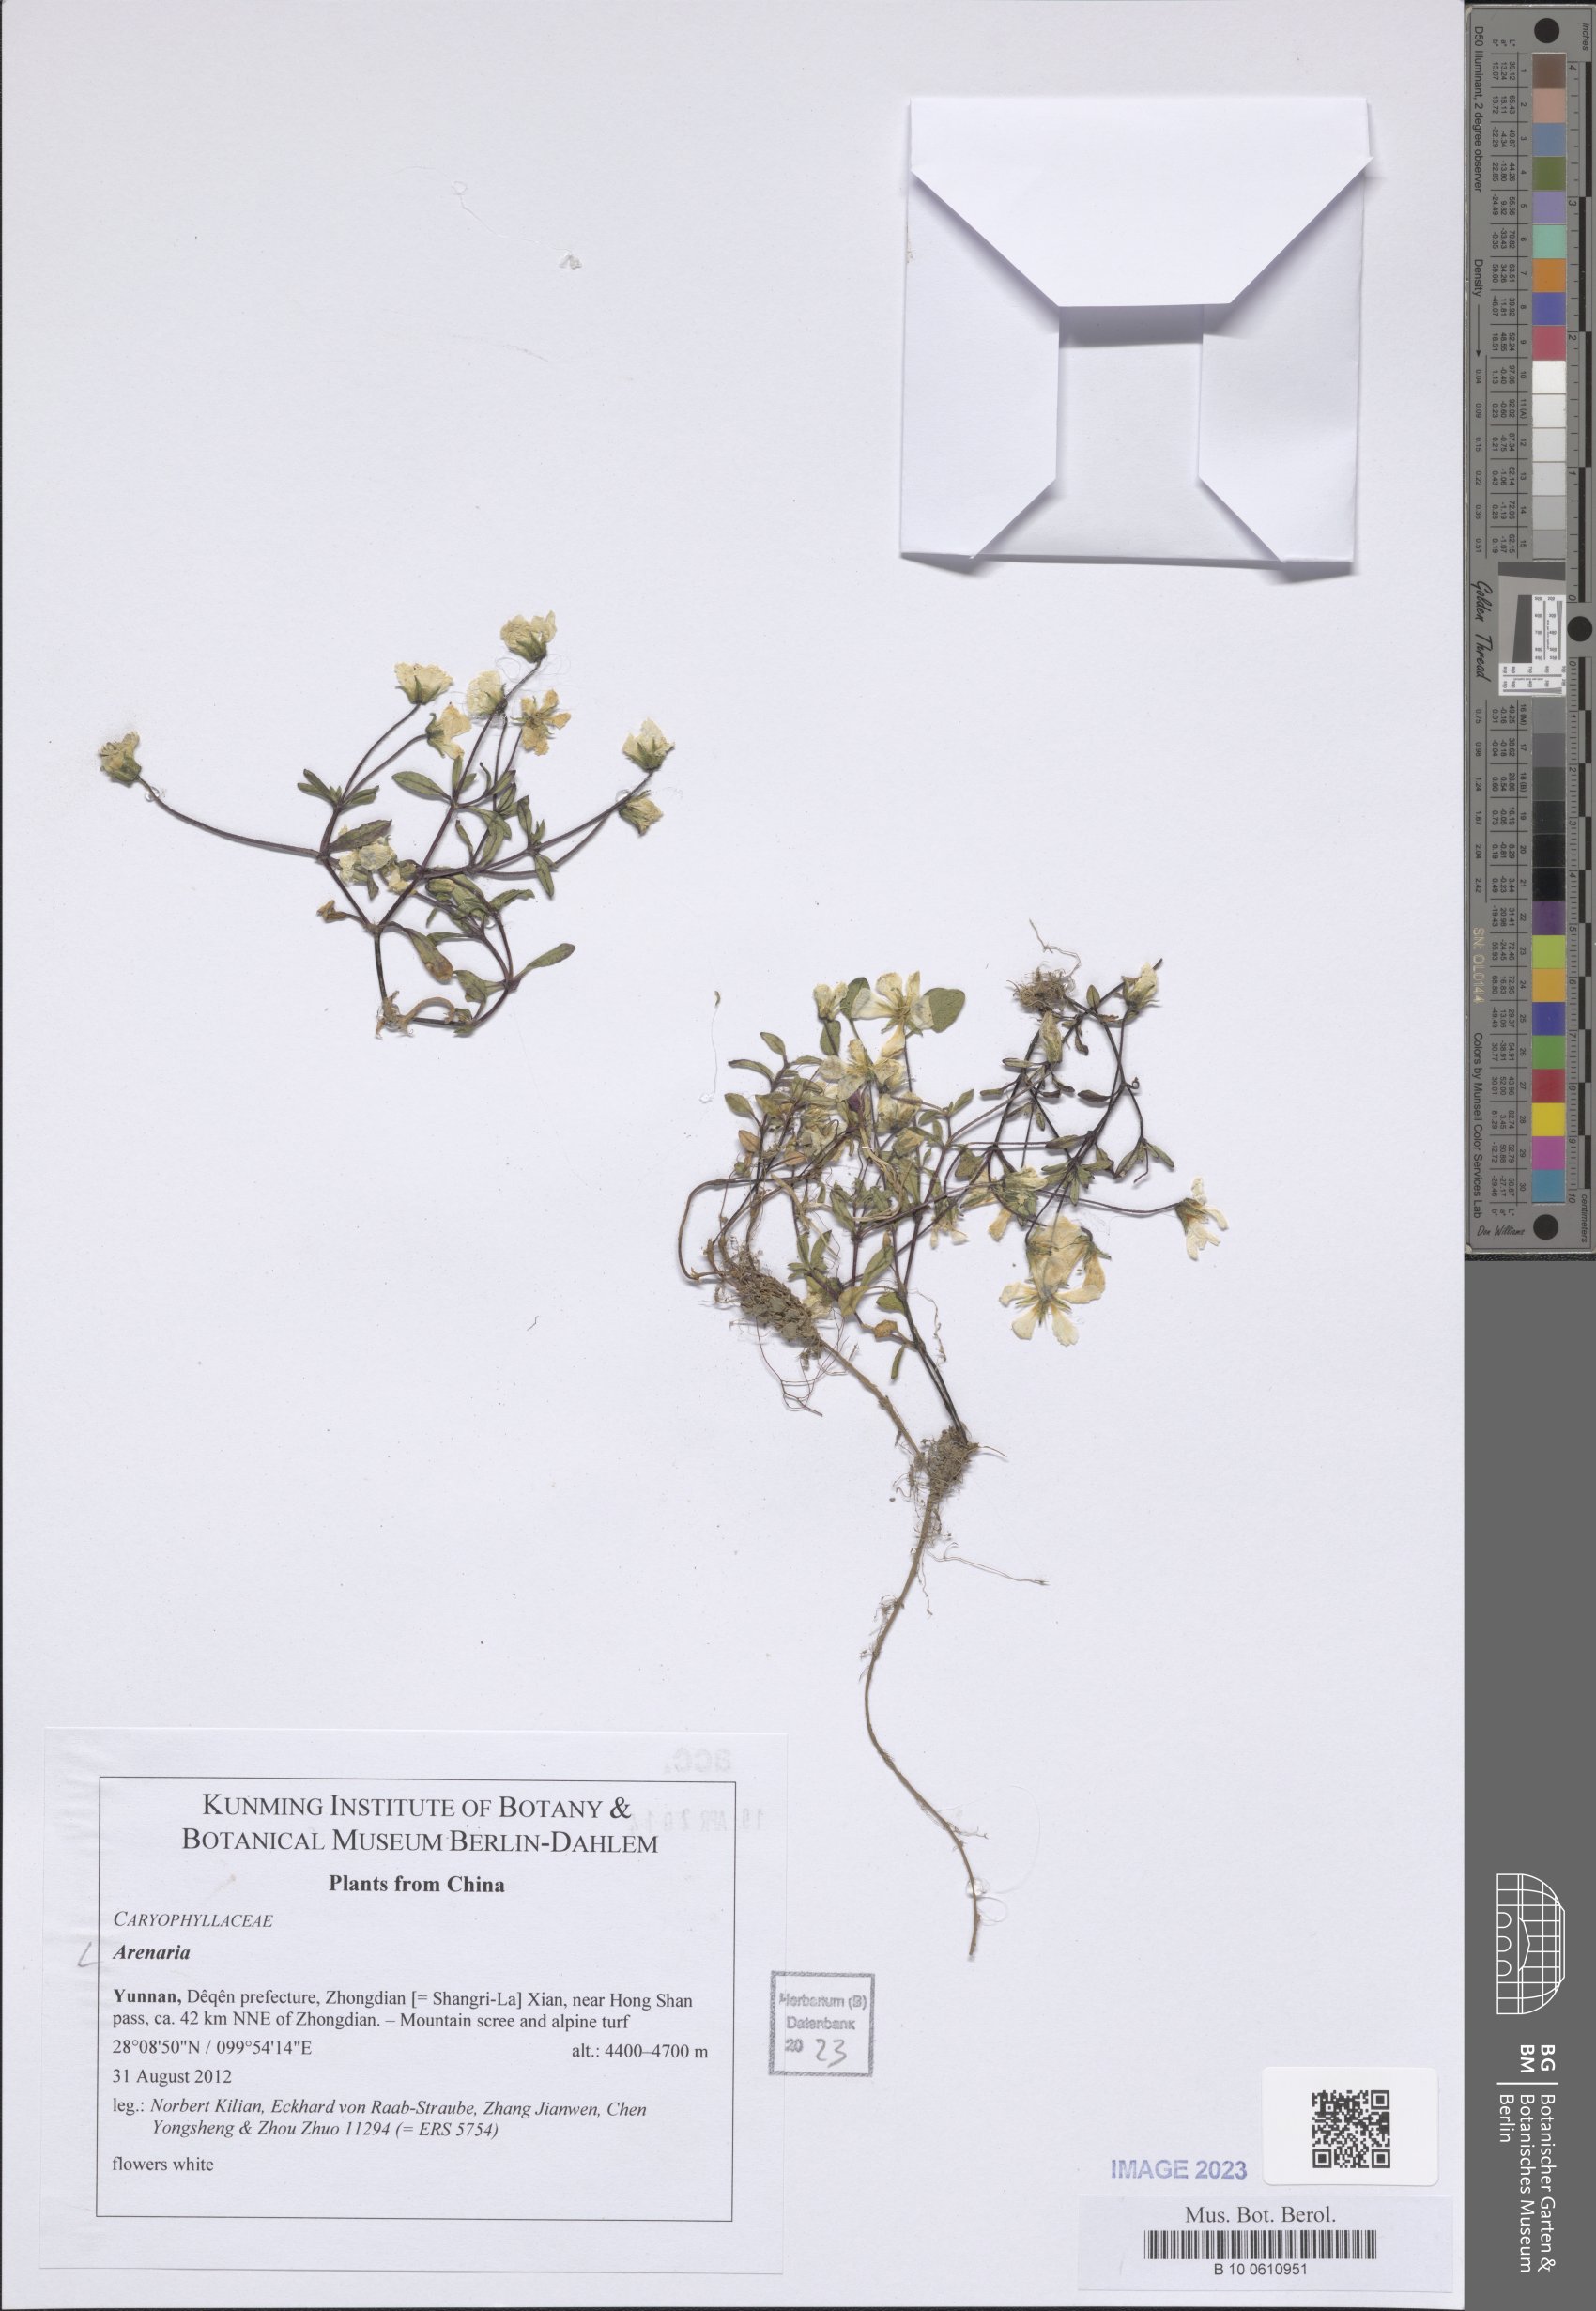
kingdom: Plantae
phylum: Tracheophyta
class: Magnoliopsida
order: Caryophyllales
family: Caryophyllaceae
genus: Arenaria
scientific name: Arenaria
